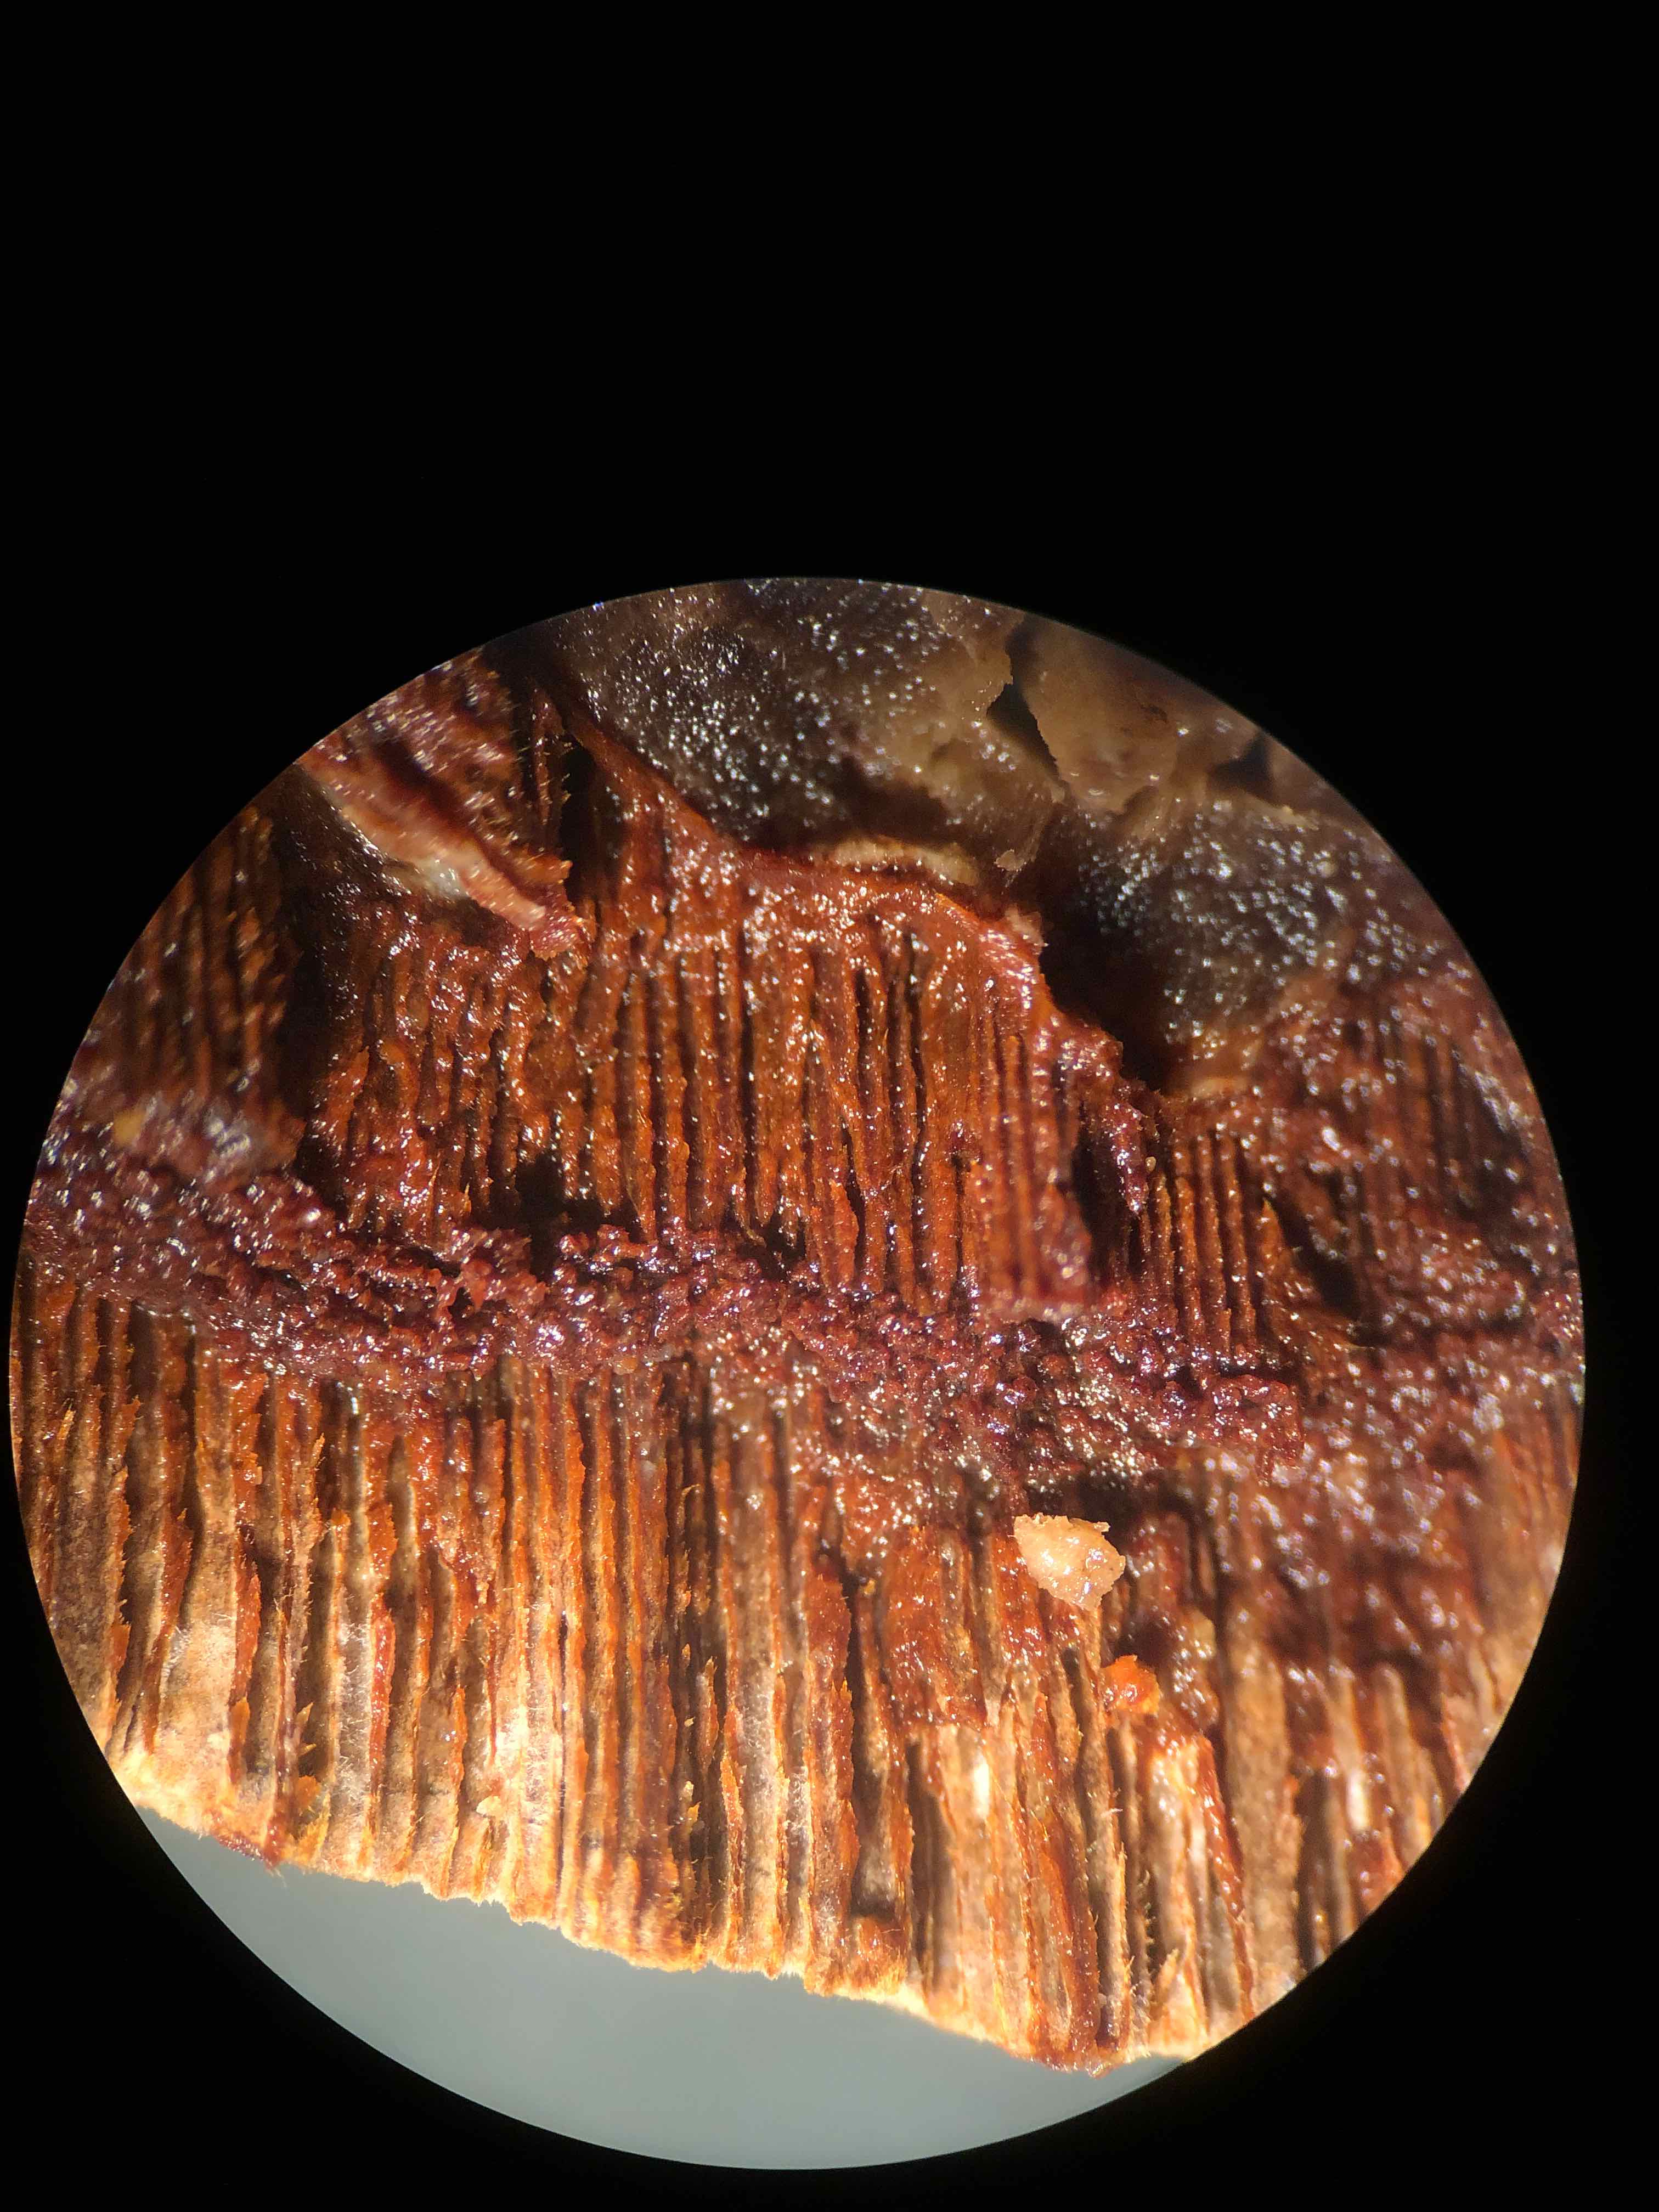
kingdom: Fungi
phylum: Basidiomycota
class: Agaricomycetes
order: Hymenochaetales
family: Hymenochaetaceae
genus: Fuscoporia
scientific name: Fuscoporia ferrea
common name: skorpe-ildporesvamp
